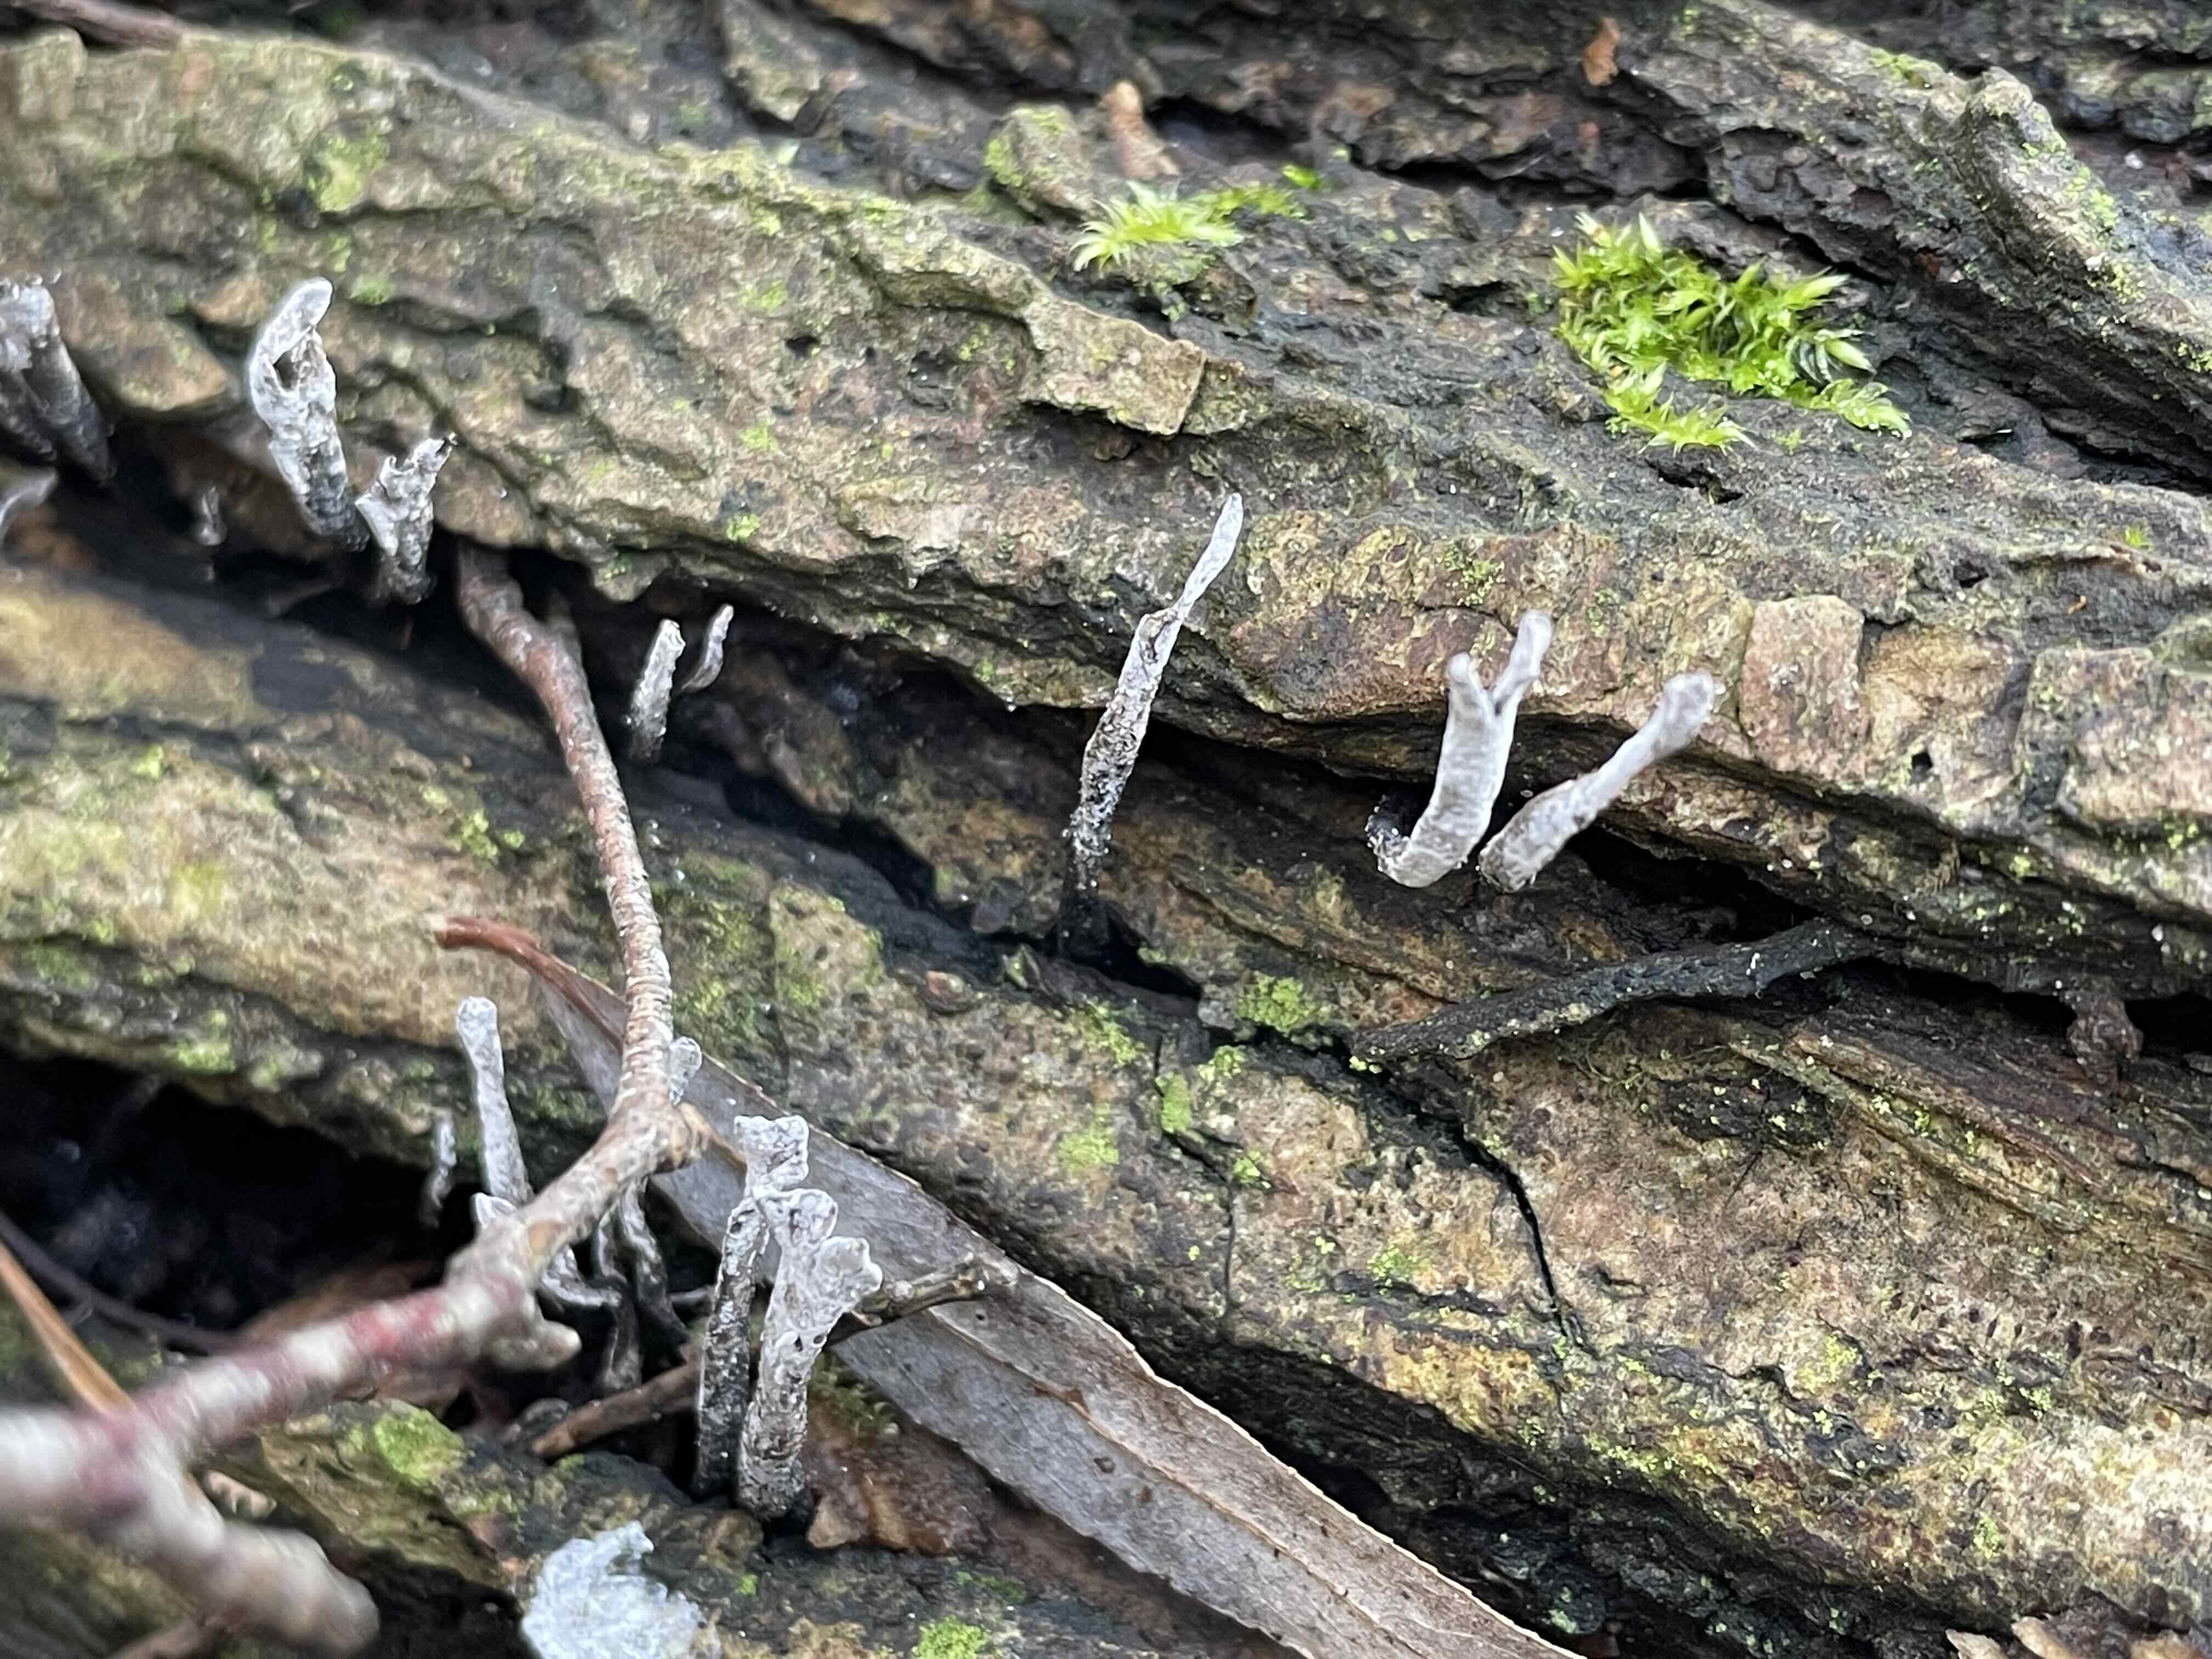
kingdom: Fungi
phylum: Ascomycota
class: Sordariomycetes
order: Xylariales
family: Xylariaceae
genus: Xylaria
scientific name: Xylaria hypoxylon
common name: grenet stødsvamp
